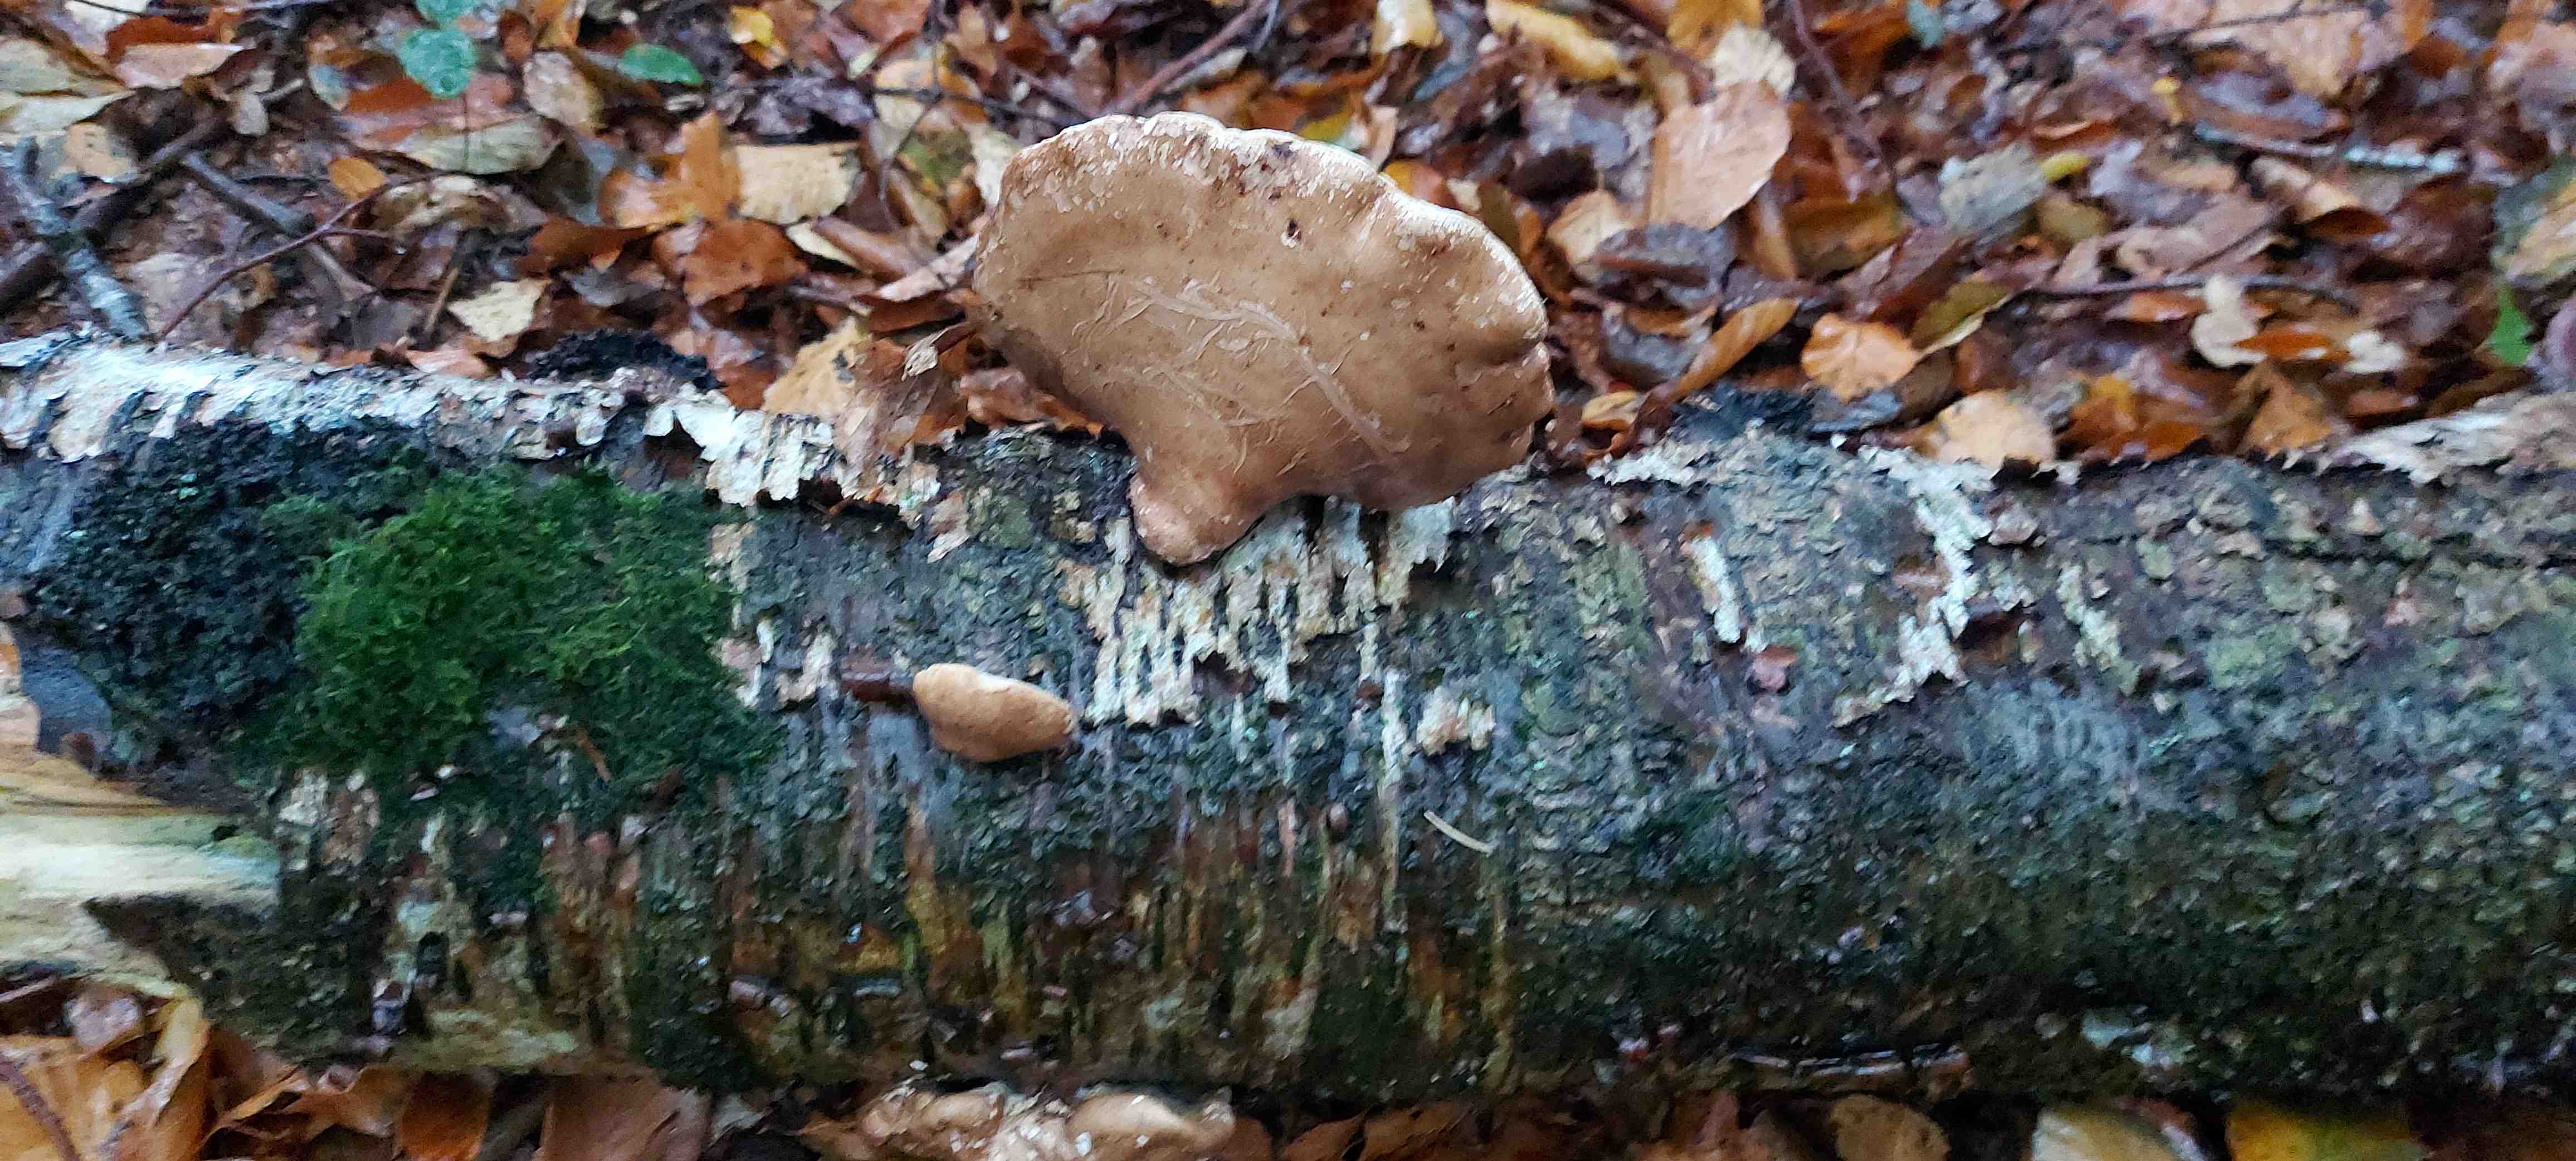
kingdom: Fungi
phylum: Basidiomycota
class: Agaricomycetes
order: Polyporales
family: Fomitopsidaceae
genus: Fomitopsis
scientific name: Fomitopsis betulina
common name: birkeporesvamp
